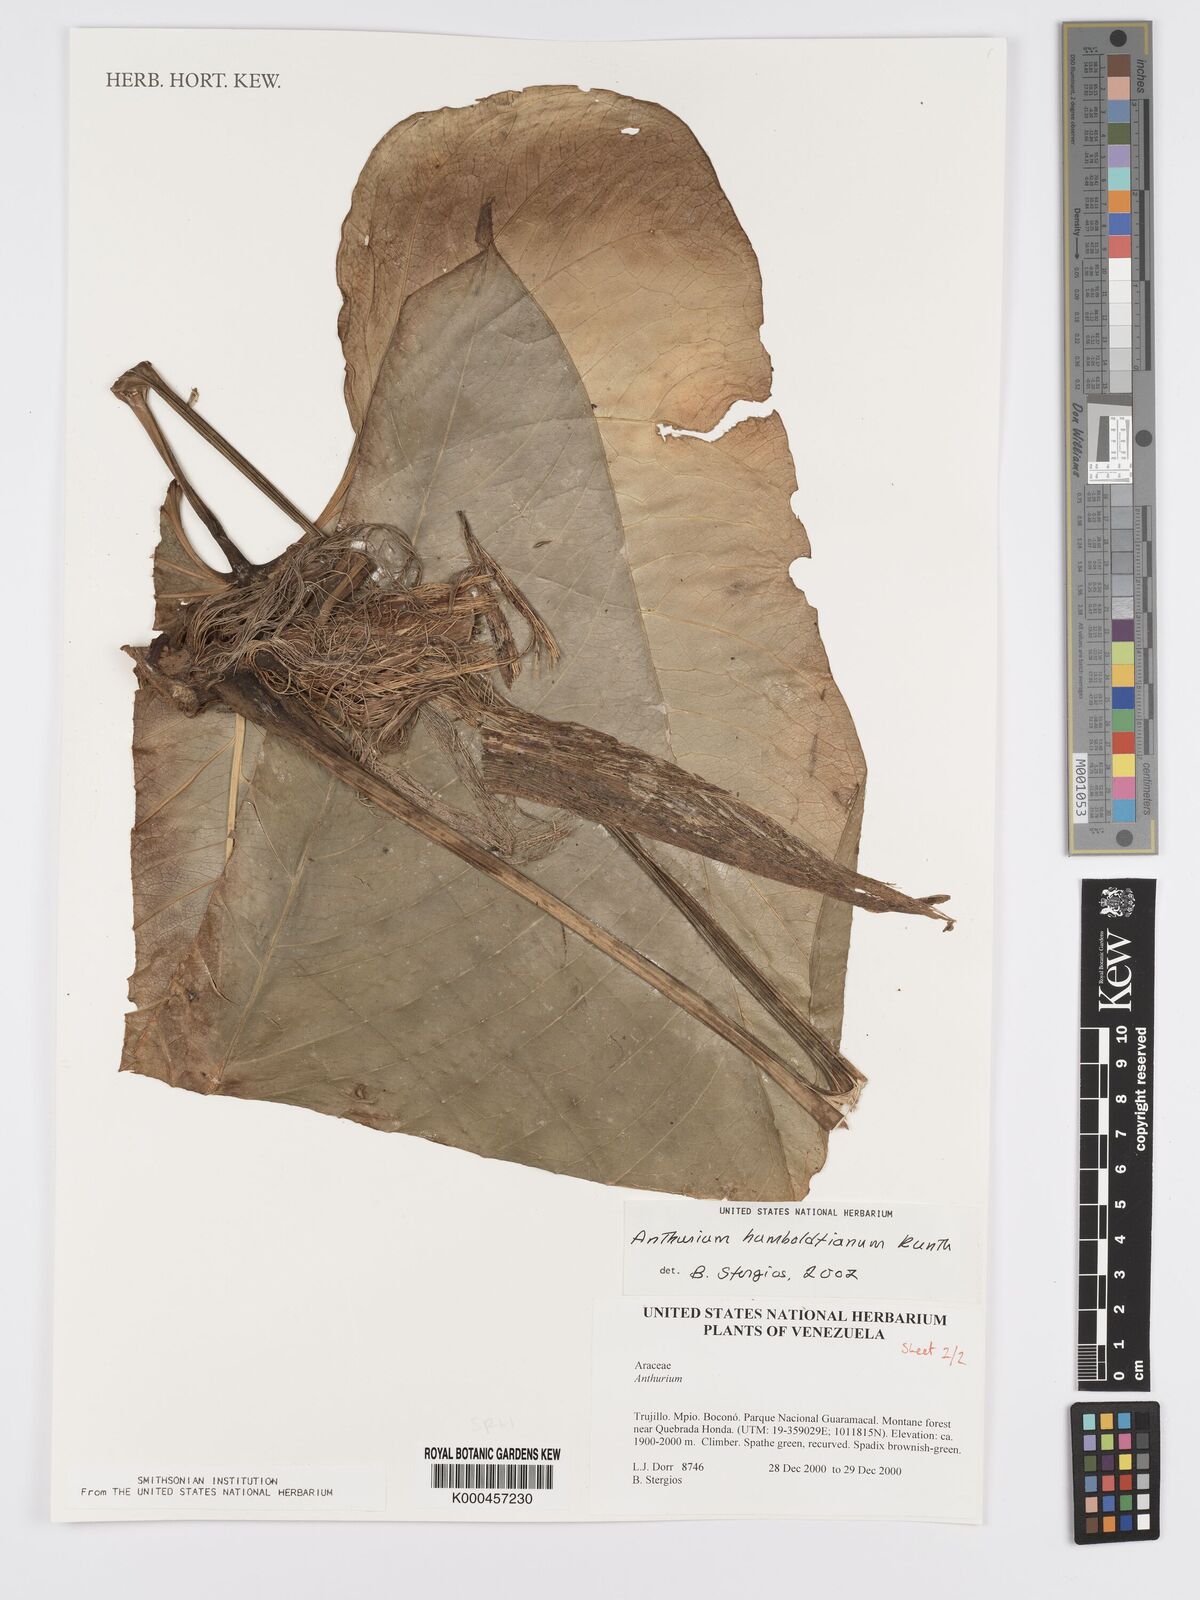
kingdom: Plantae
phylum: Tracheophyta
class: Liliopsida
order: Alismatales
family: Araceae
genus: Anthurium
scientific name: Anthurium
